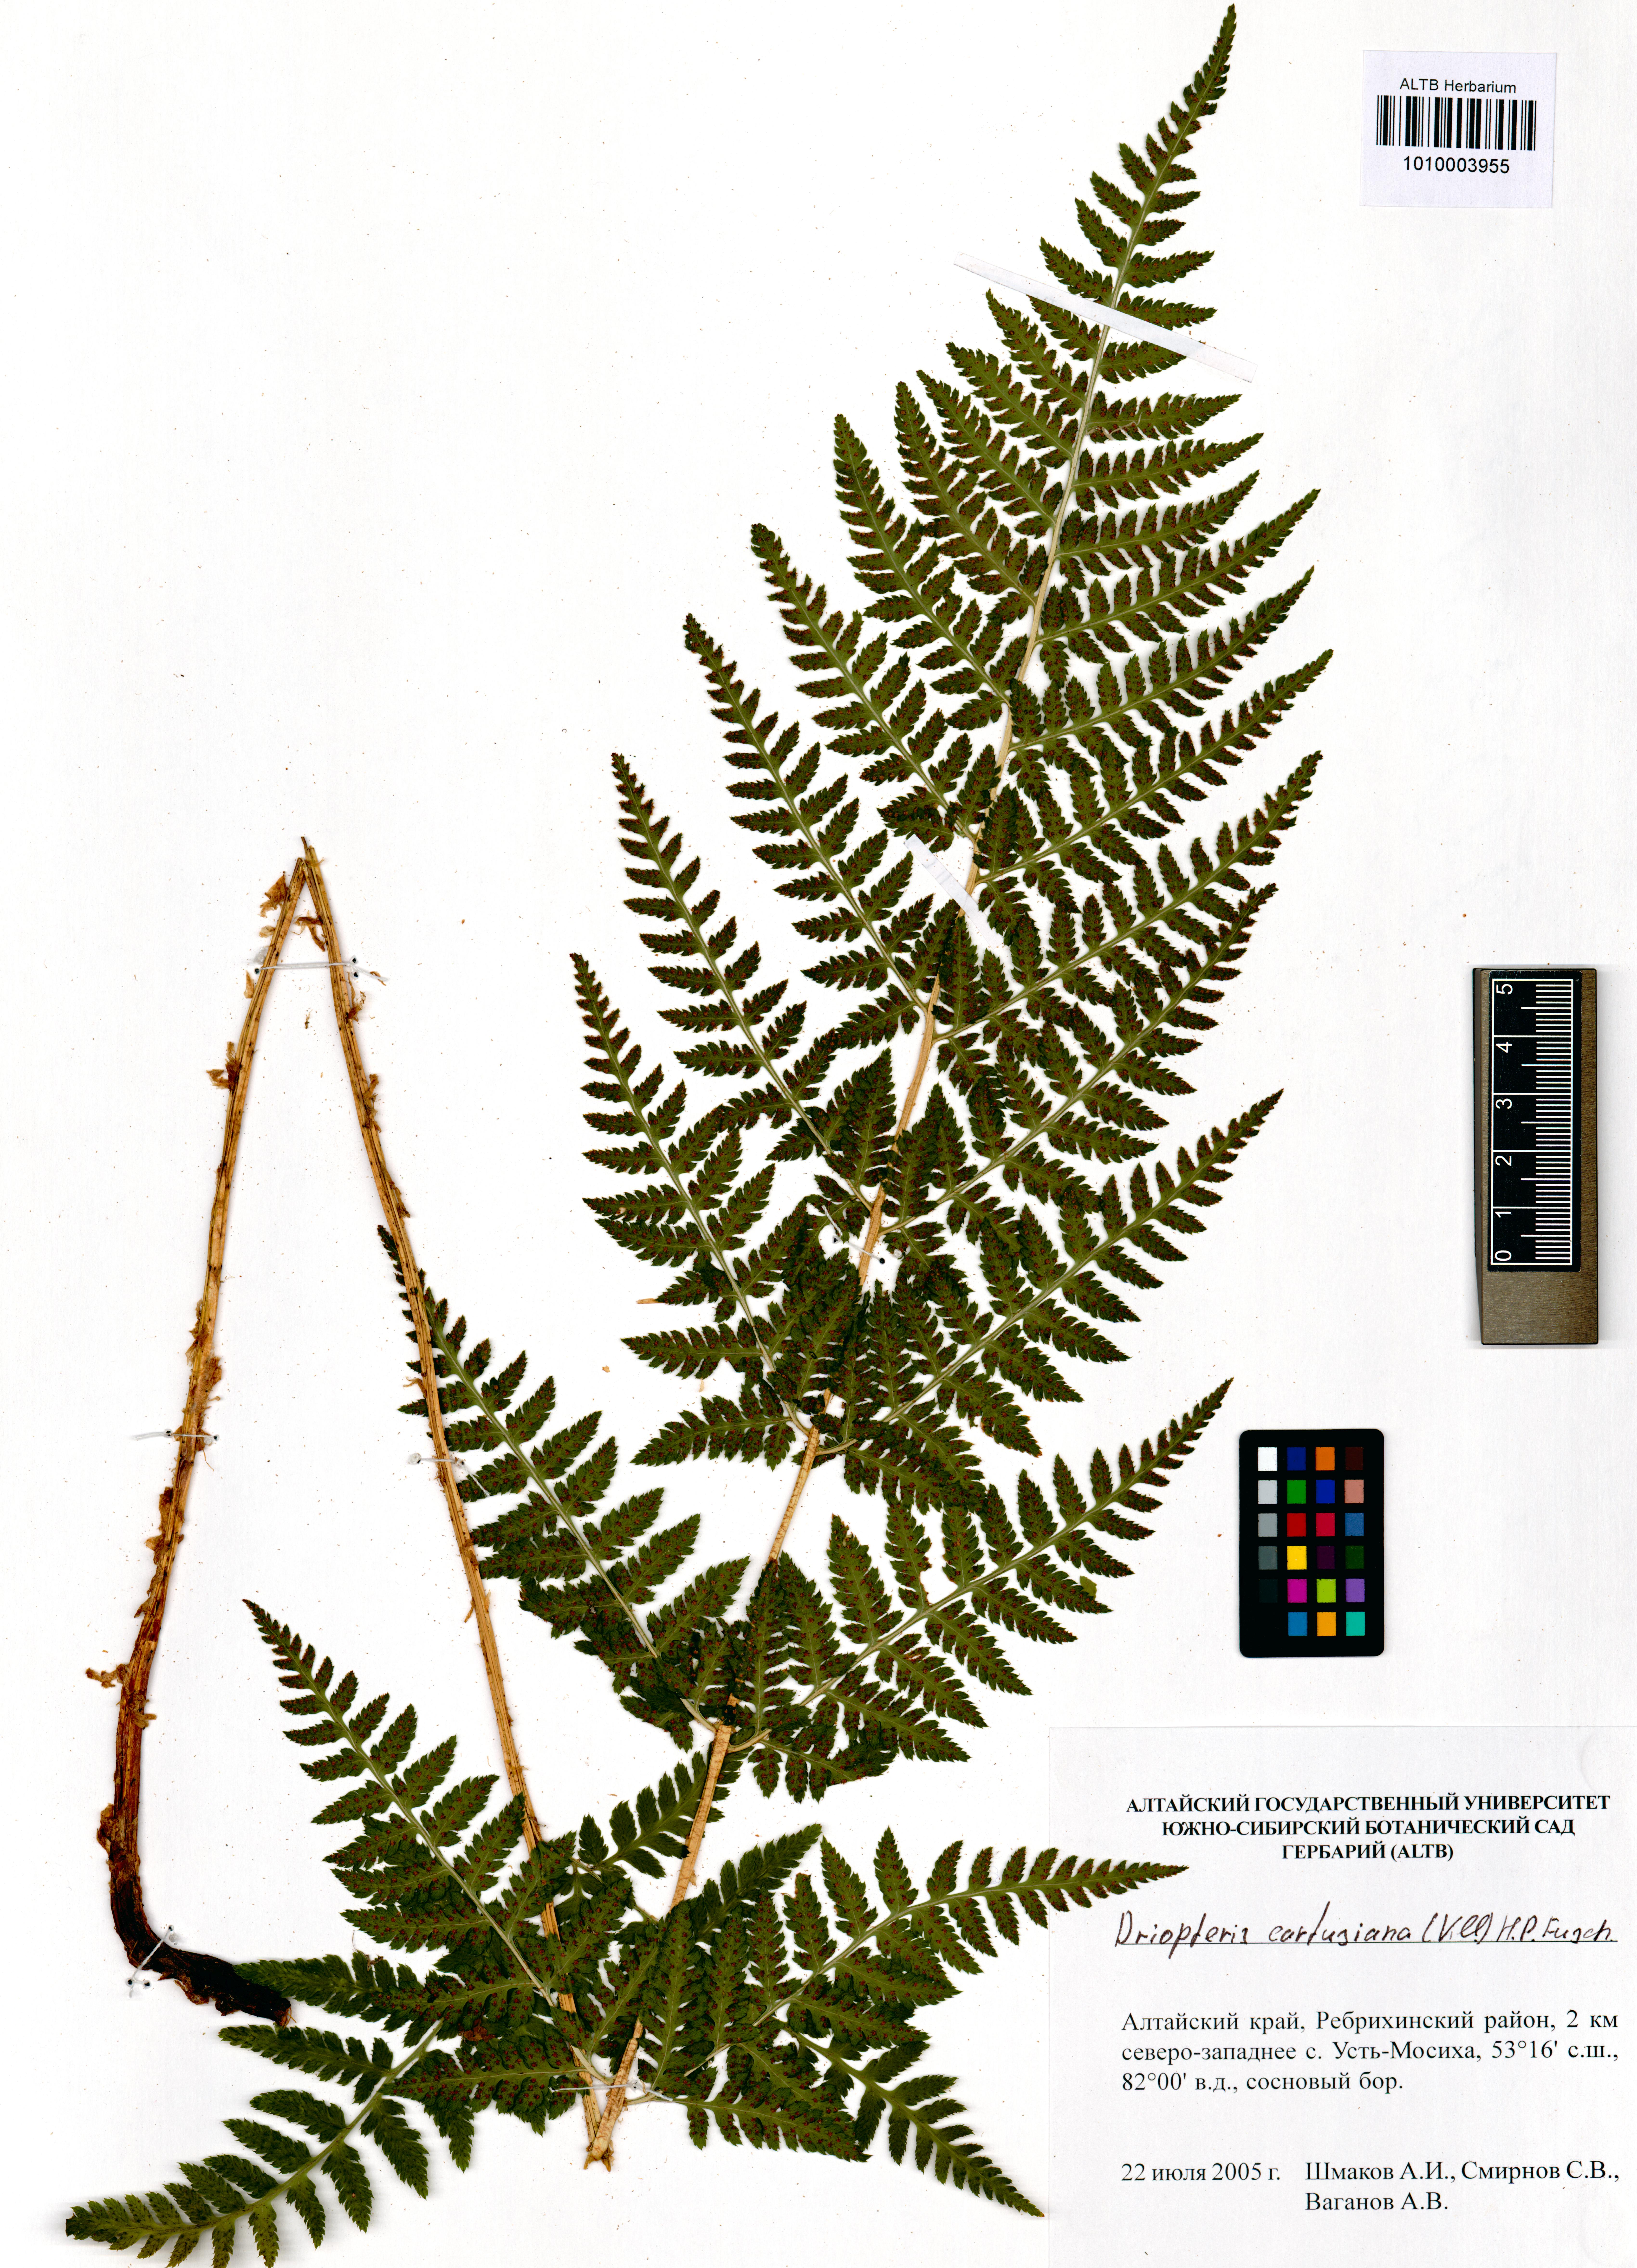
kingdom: Plantae
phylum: Tracheophyta
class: Polypodiopsida
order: Polypodiales
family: Dryopteridaceae
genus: Dryopteris
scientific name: Dryopteris carthusiana
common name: Narrow buckler-fern
